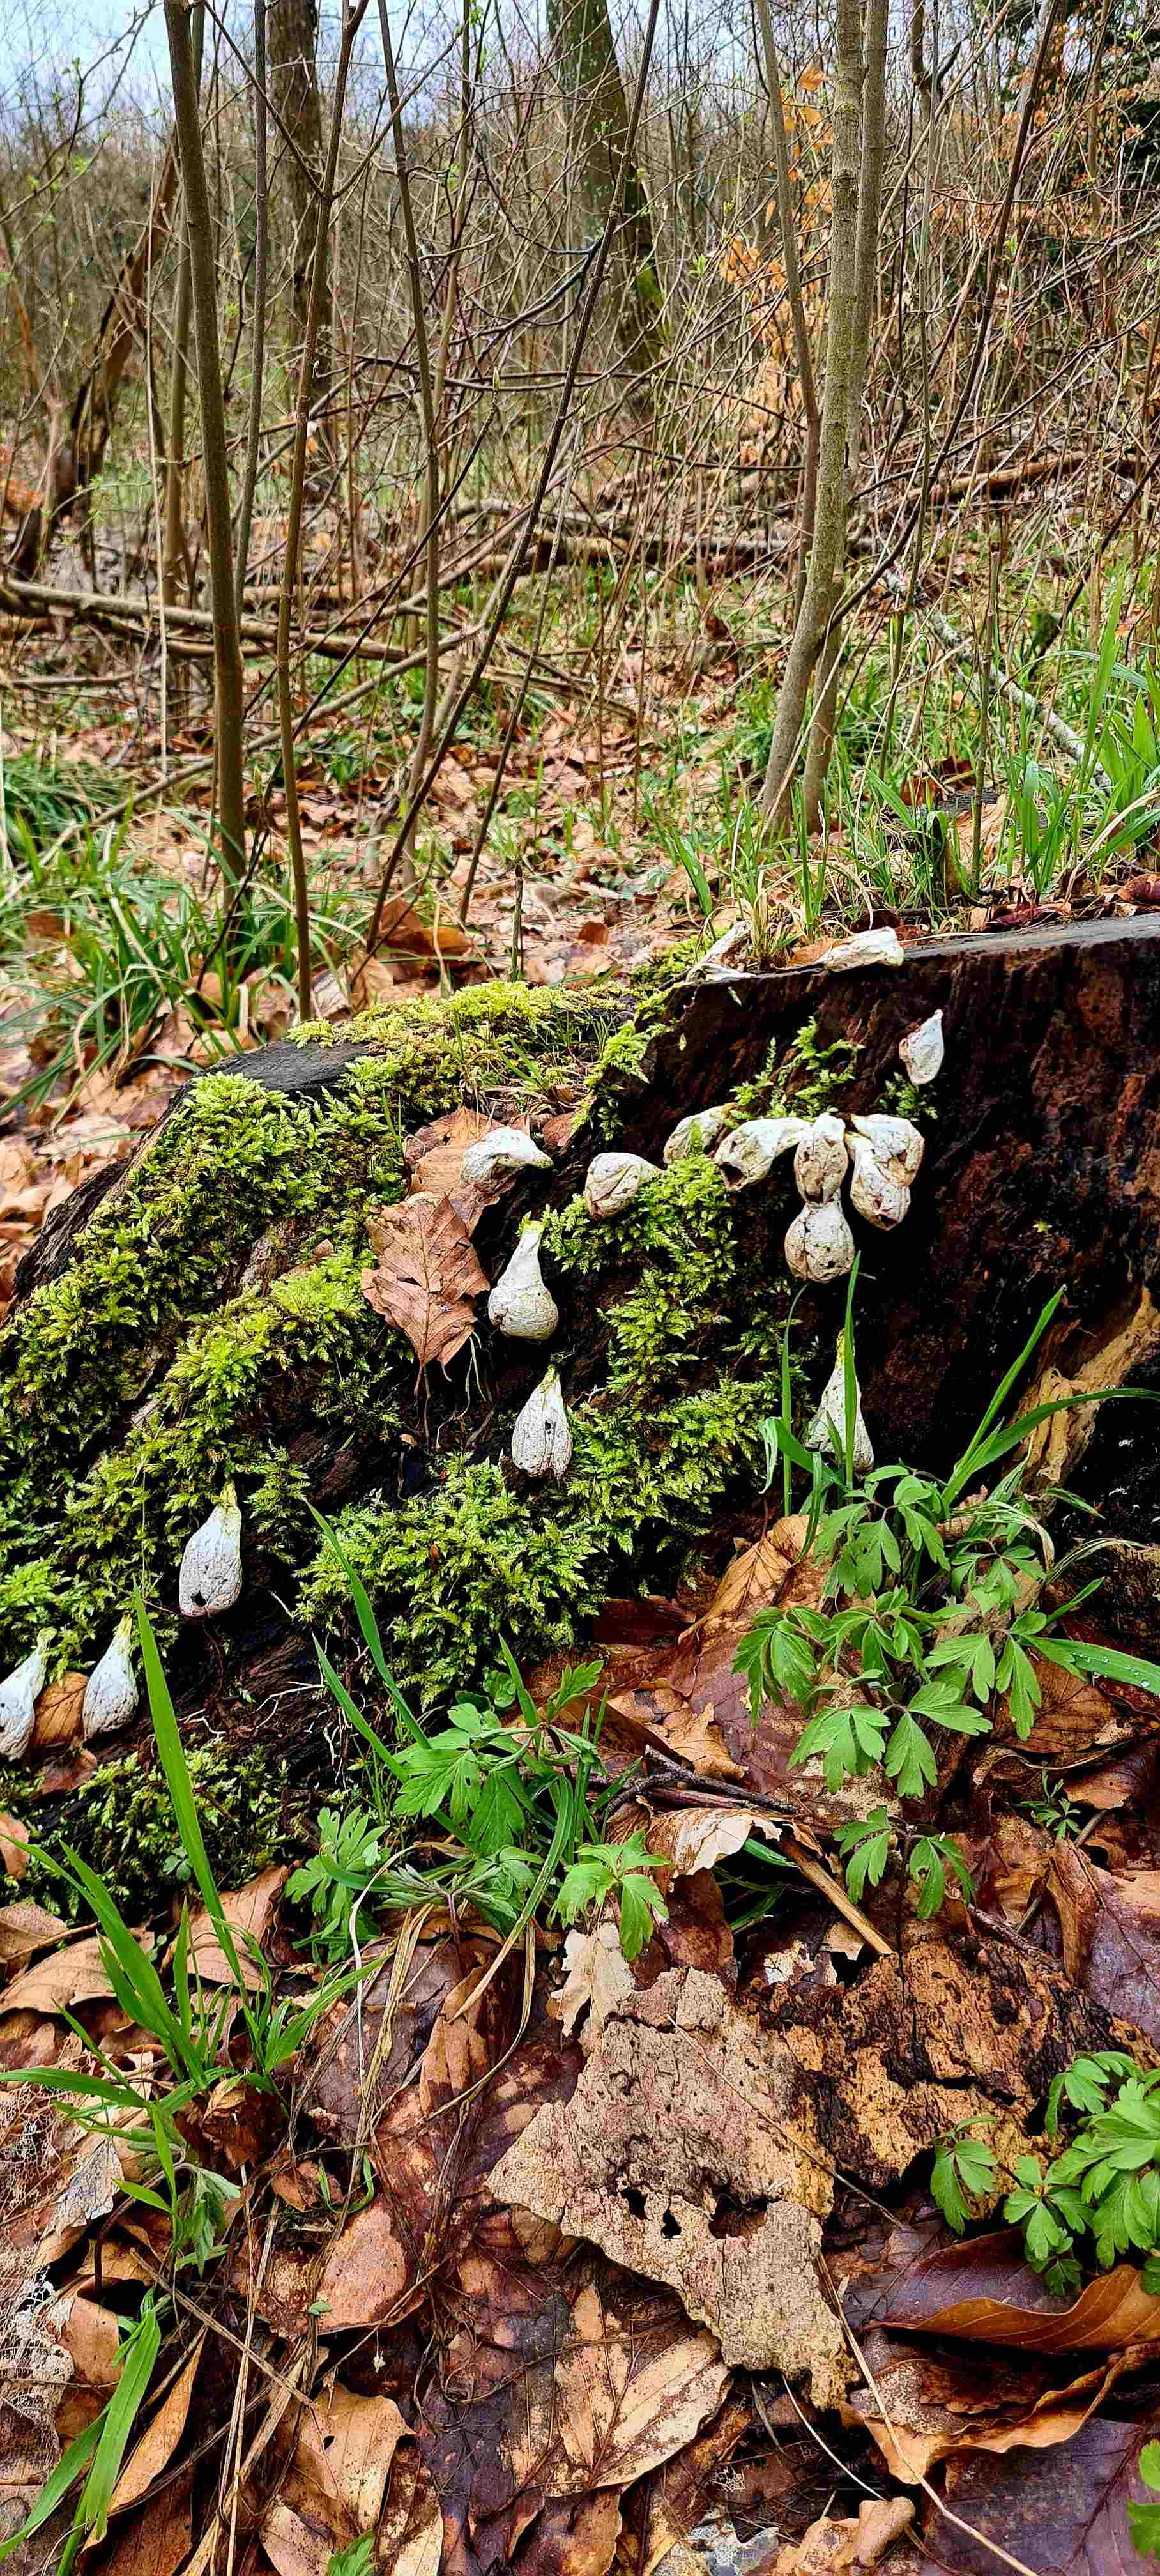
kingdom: Fungi
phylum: Basidiomycota
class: Agaricomycetes
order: Agaricales
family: Lycoperdaceae
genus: Apioperdon
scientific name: Apioperdon pyriforme
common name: pære-støvbold
